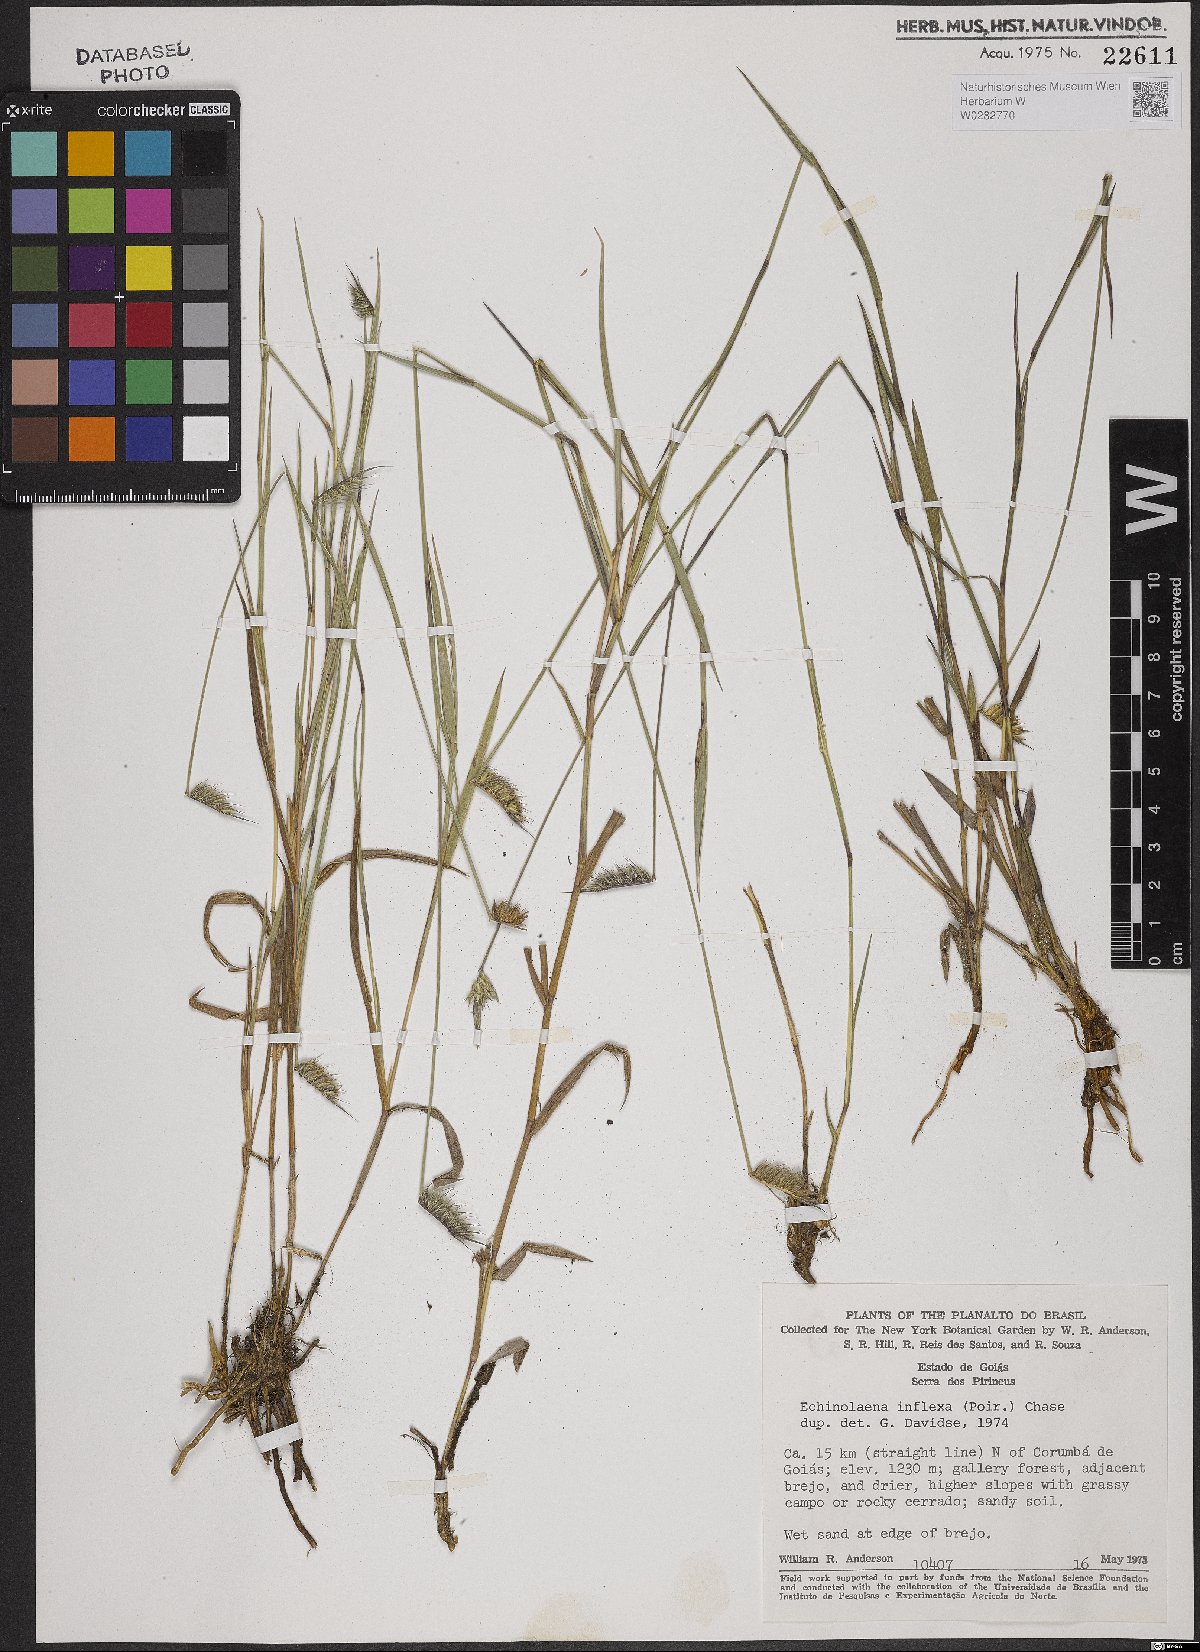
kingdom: Plantae
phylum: Tracheophyta
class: Liliopsida
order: Poales
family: Poaceae
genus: Echinolaena
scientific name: Echinolaena inflexa
